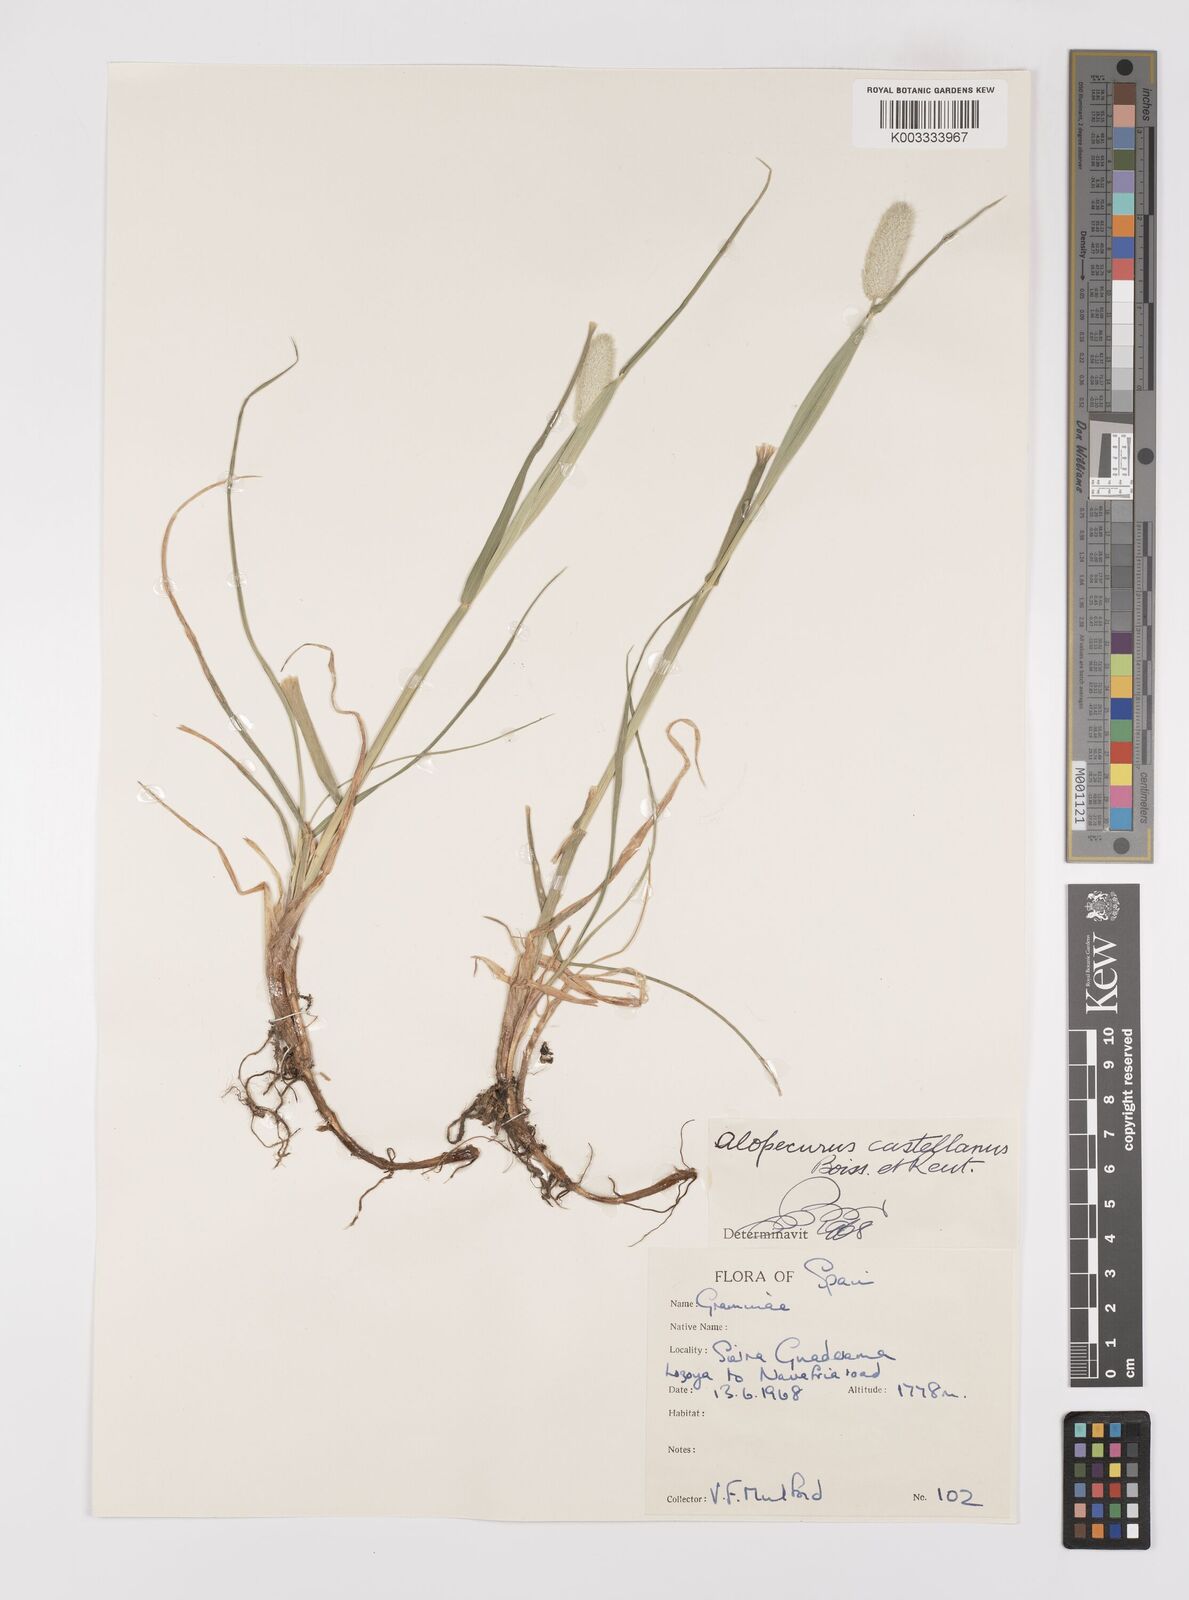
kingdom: Plantae
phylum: Tracheophyta
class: Liliopsida
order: Poales
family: Poaceae
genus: Alopecurus
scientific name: Alopecurus arundinaceus
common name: Creeping meadow foxtail
